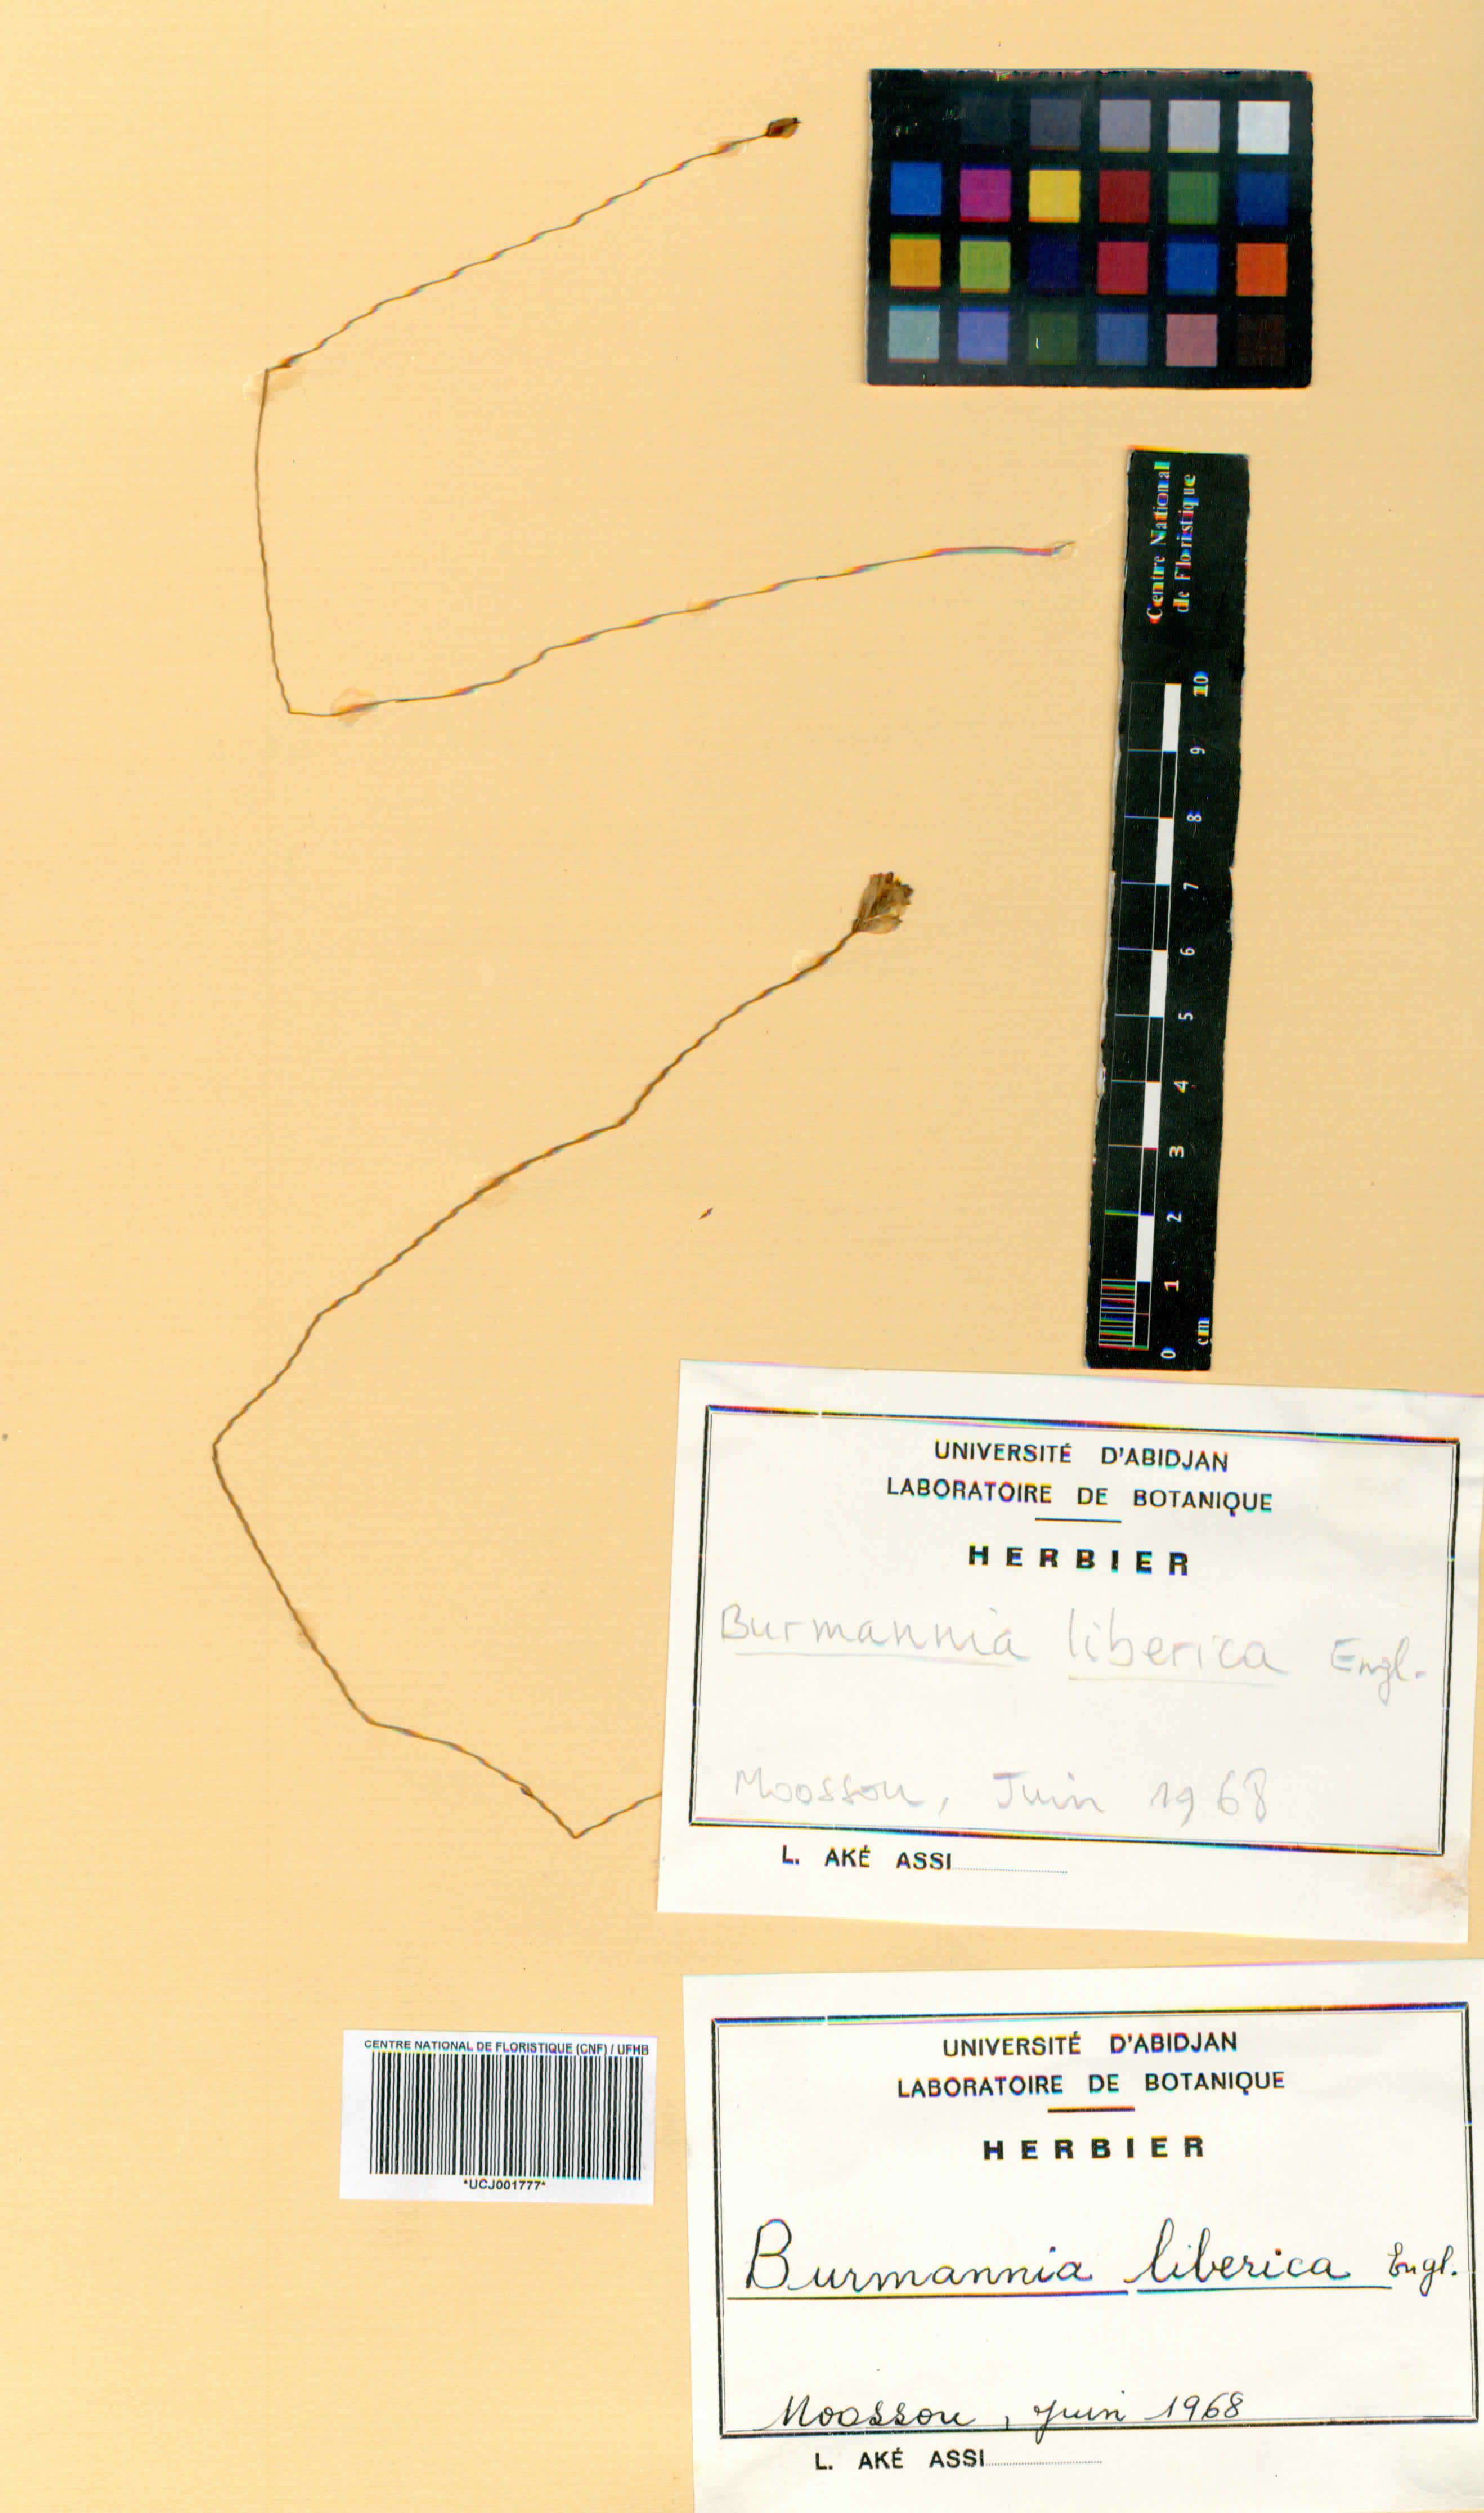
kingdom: Plantae
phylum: Tracheophyta
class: Liliopsida
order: Dioscoreales
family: Burmanniaceae
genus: Burmannia
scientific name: Burmannia latialata
